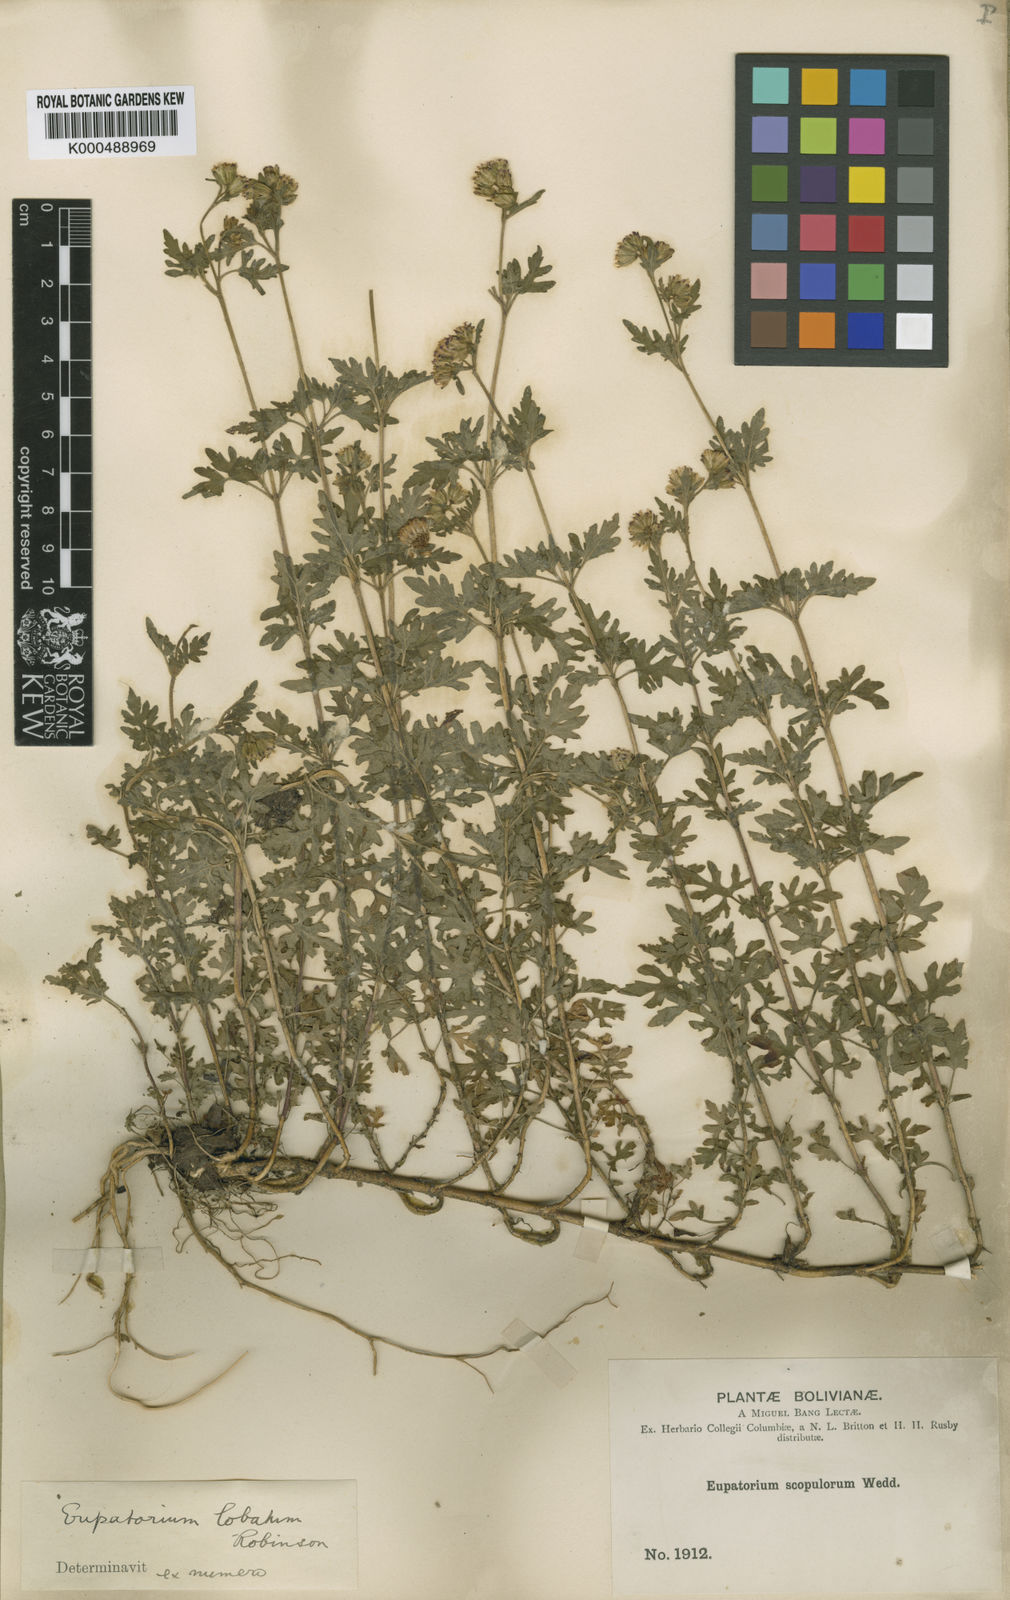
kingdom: Plantae
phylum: Tracheophyta
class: Magnoliopsida
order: Asterales
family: Asteraceae
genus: Neocuatrecasia
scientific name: Neocuatrecasia lobata
